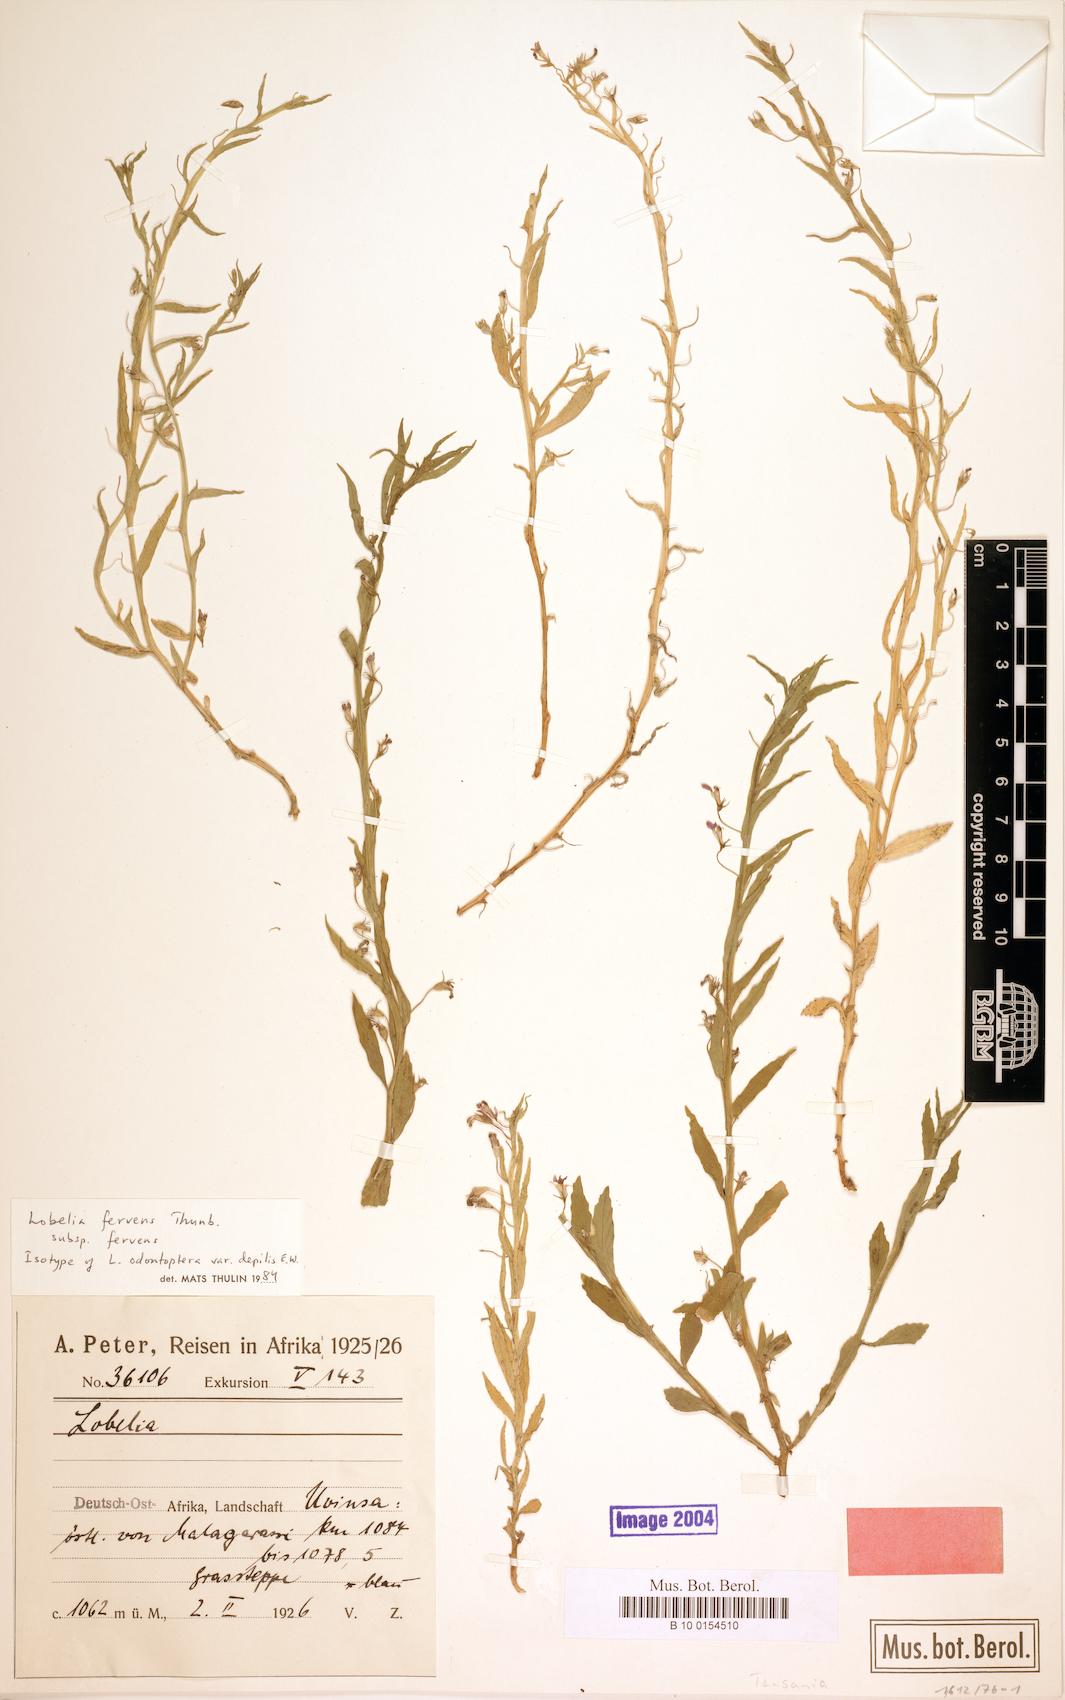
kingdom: Plantae
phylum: Tracheophyta
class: Magnoliopsida
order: Asterales
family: Campanulaceae
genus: Lobelia
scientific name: Lobelia fervens
